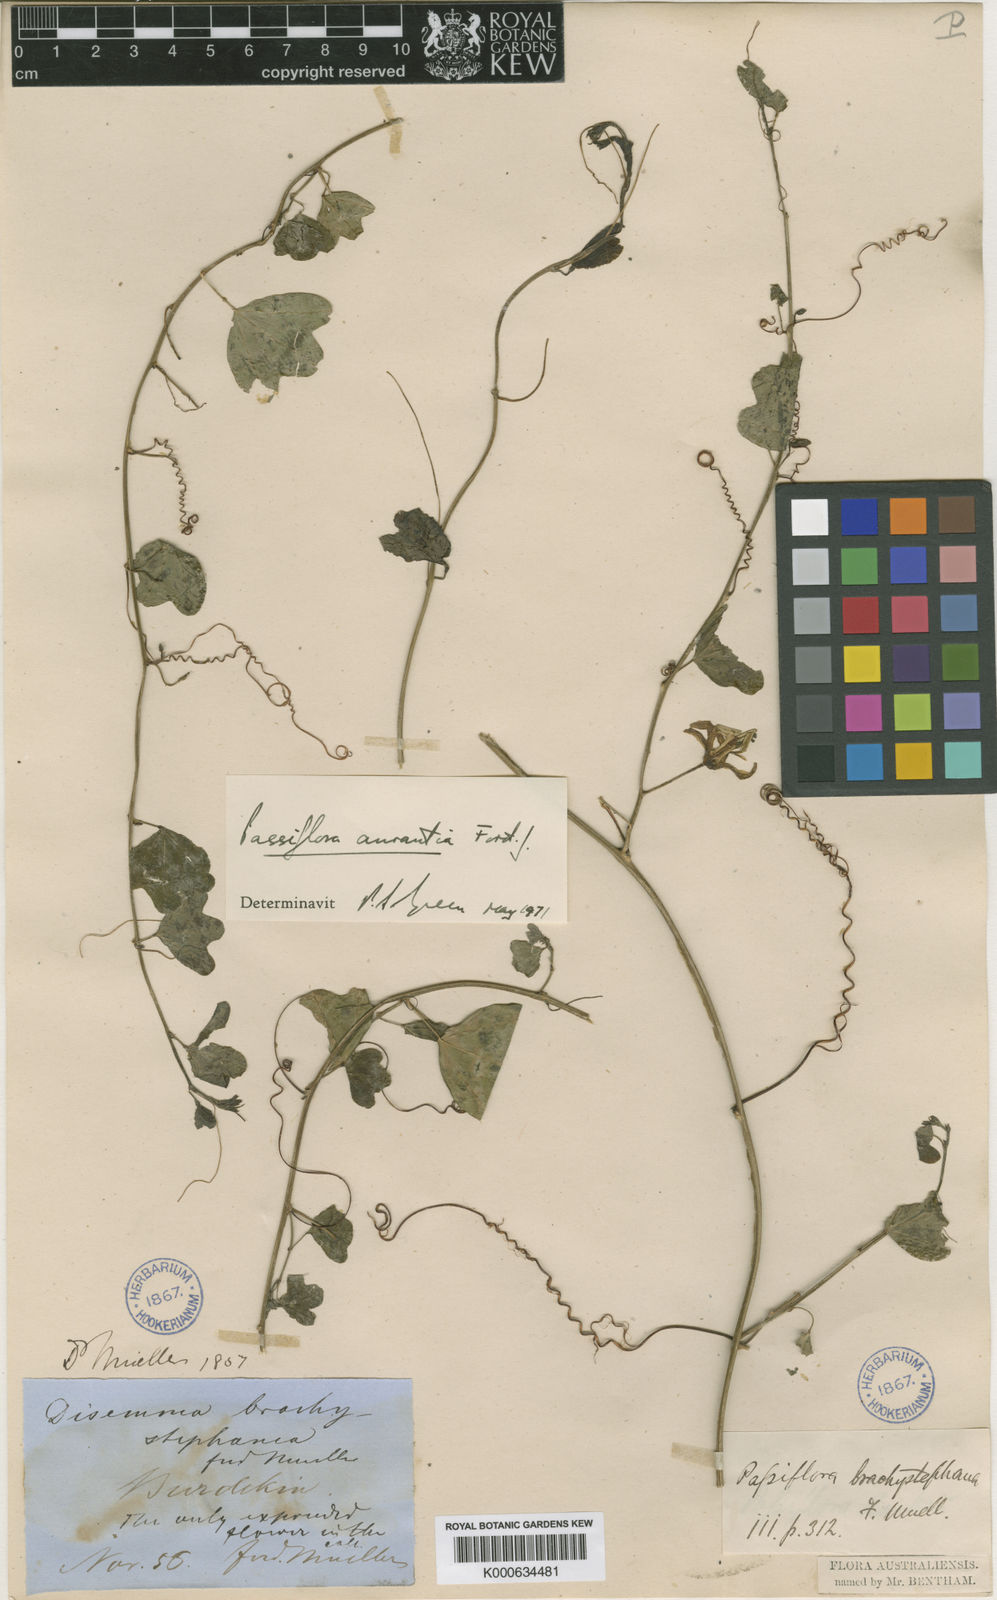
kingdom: Plantae
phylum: Tracheophyta
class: Magnoliopsida
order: Malpighiales
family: Passifloraceae
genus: Passiflora
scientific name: Passiflora aurantia
